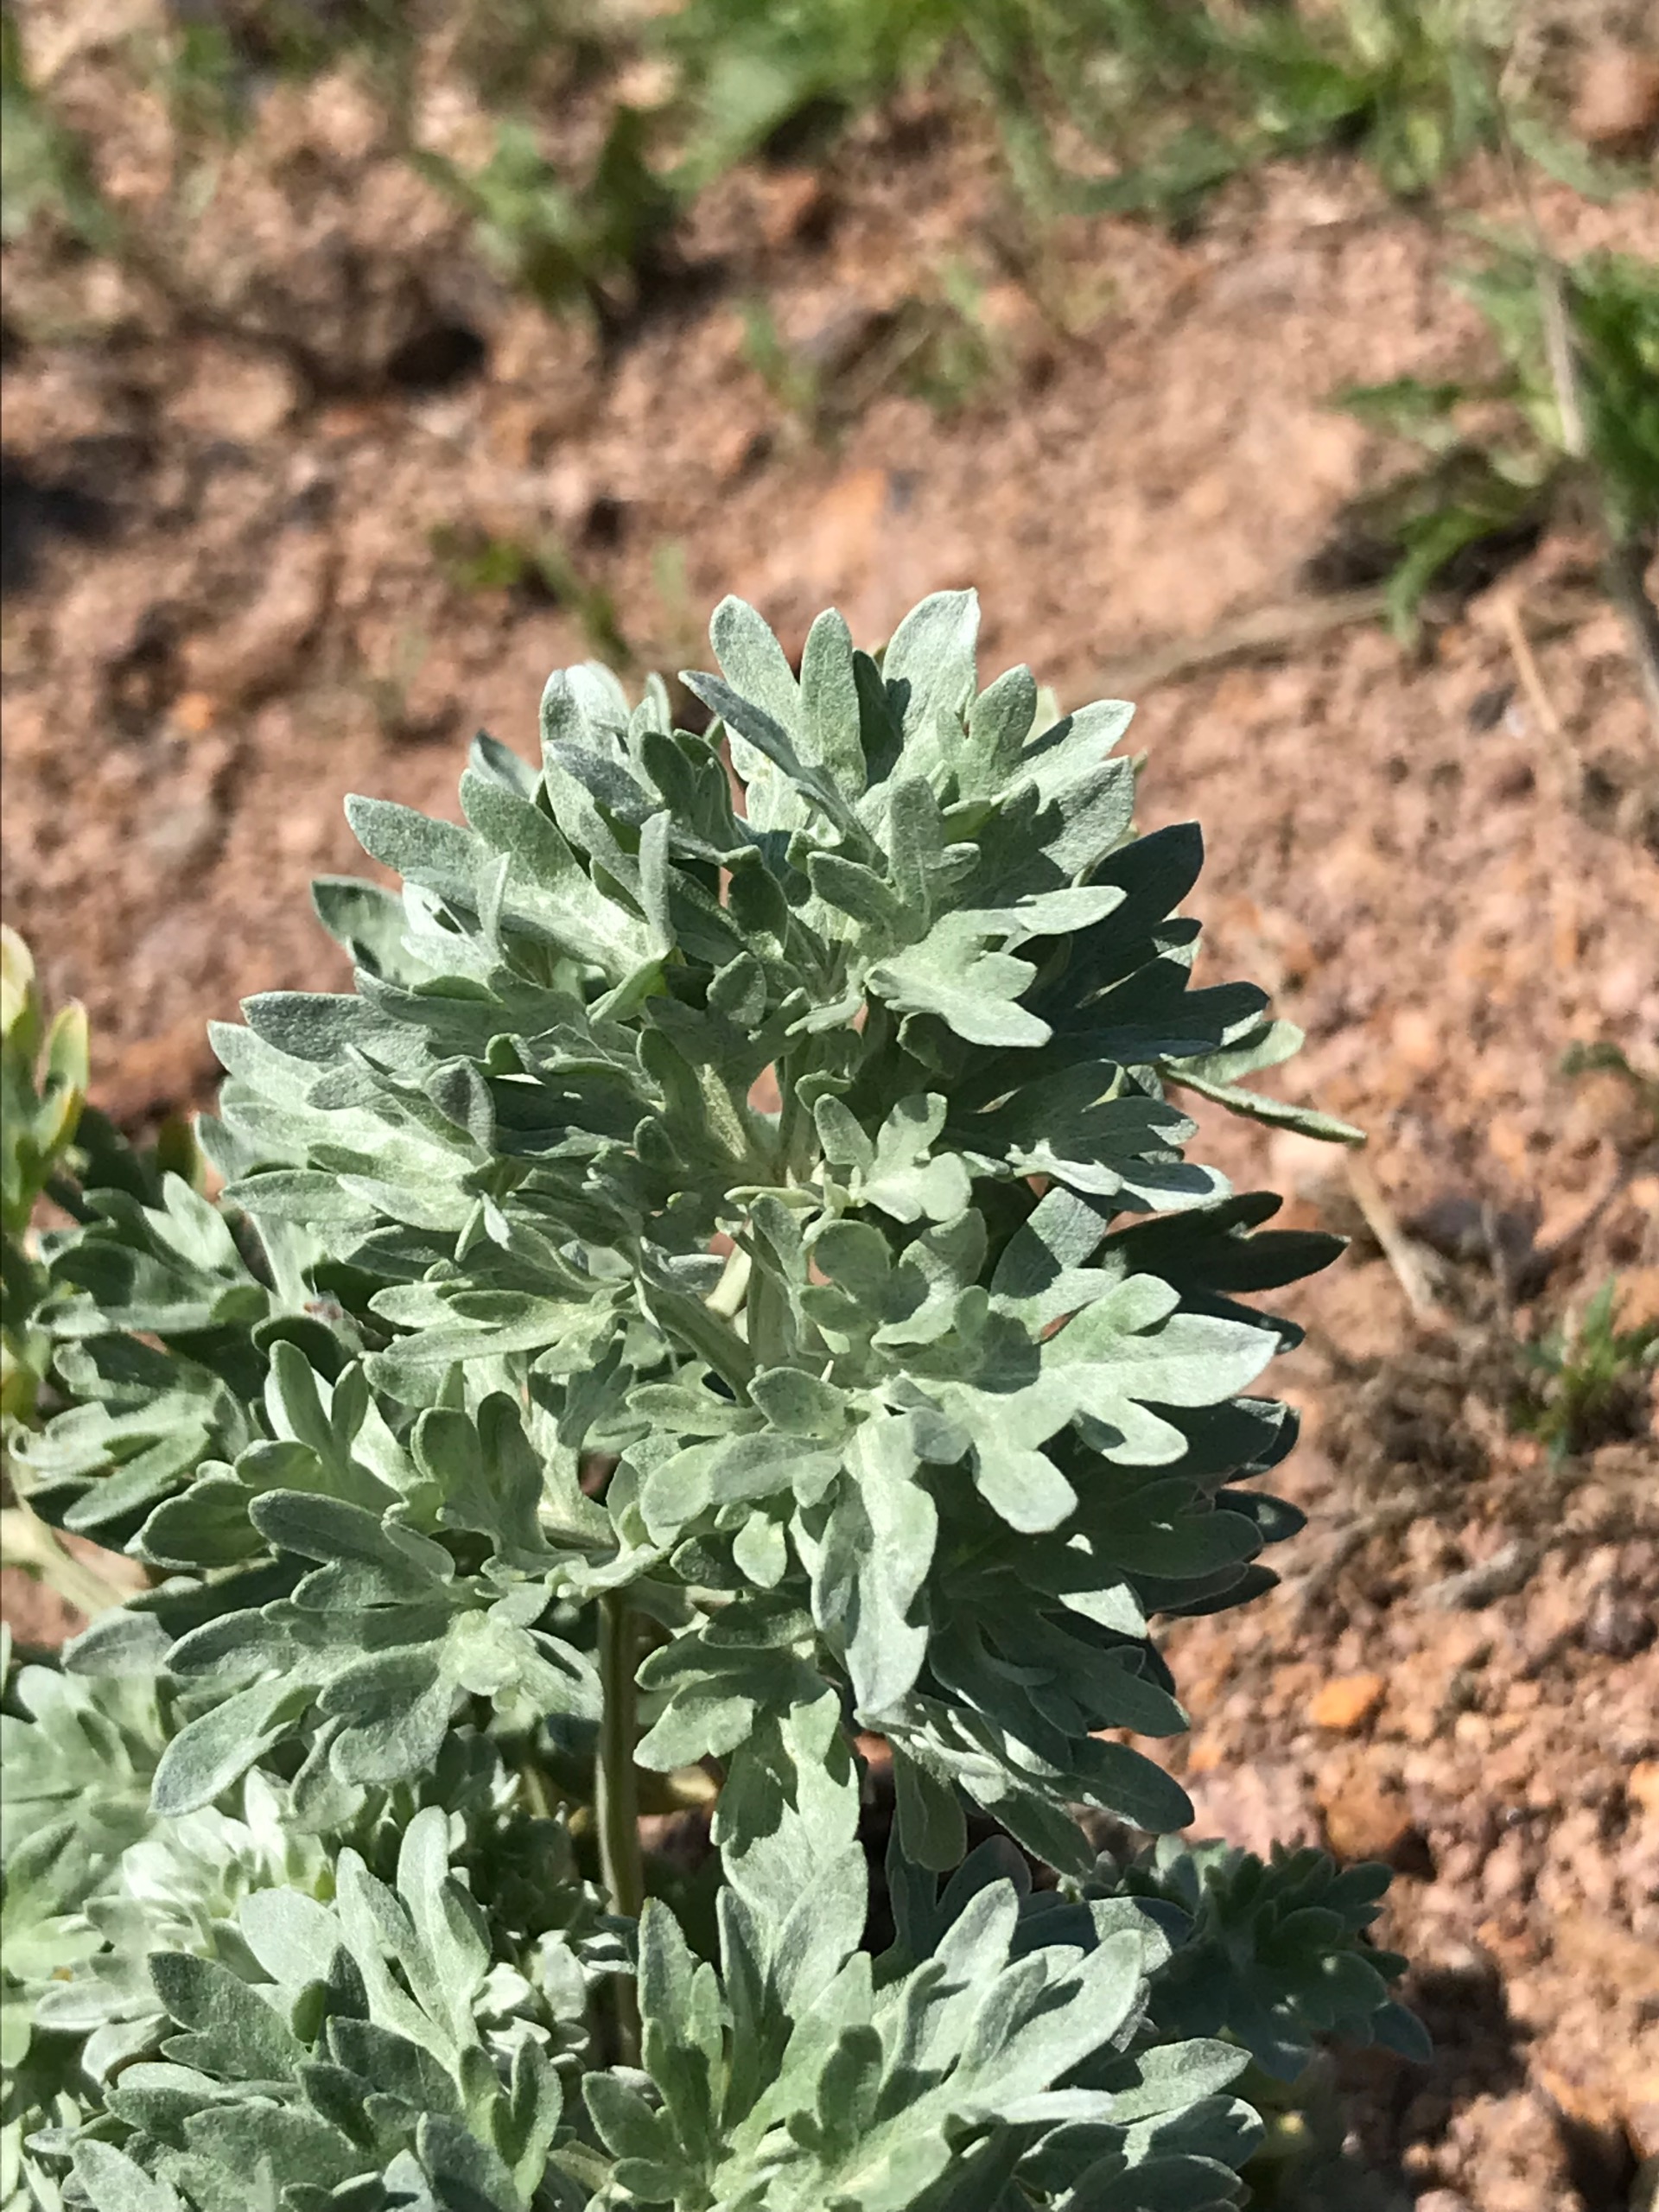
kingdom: Plantae
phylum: Tracheophyta
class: Magnoliopsida
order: Asterales
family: Asteraceae
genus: Artemisia
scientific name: Artemisia absinthium
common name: Havemalurt
